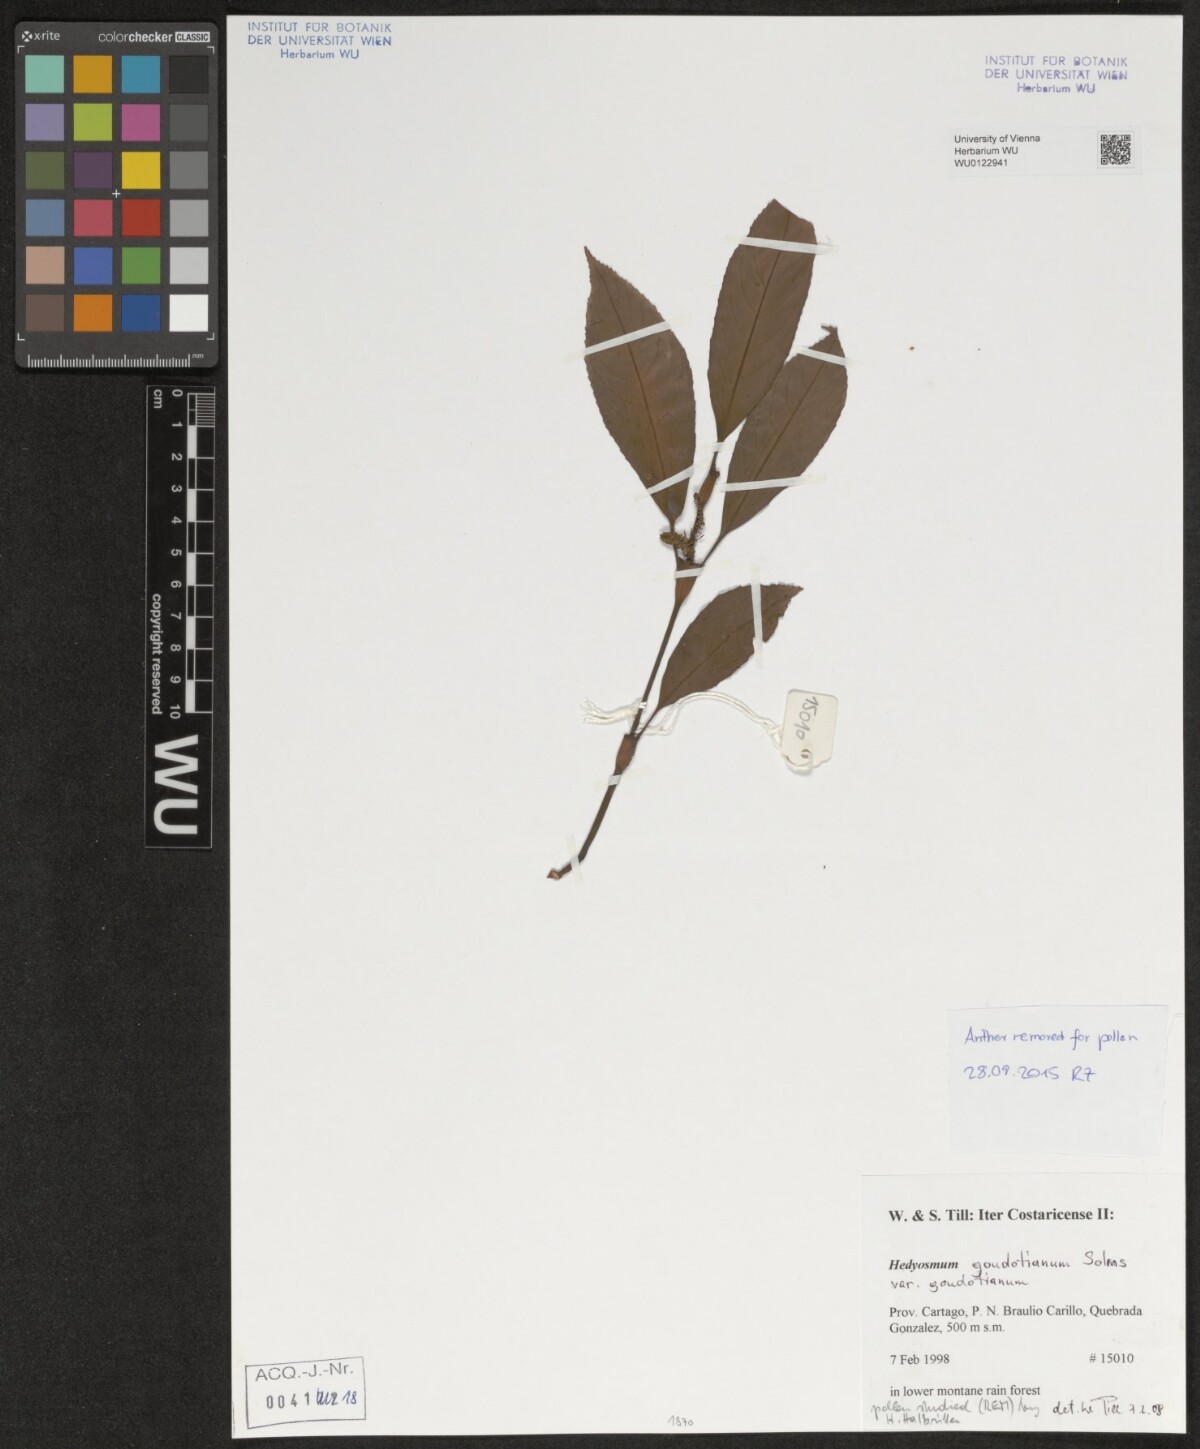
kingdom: Plantae
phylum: Tracheophyta
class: Magnoliopsida
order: Chloranthales
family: Chloranthaceae
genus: Hedyosmum
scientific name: Hedyosmum goudotianum
